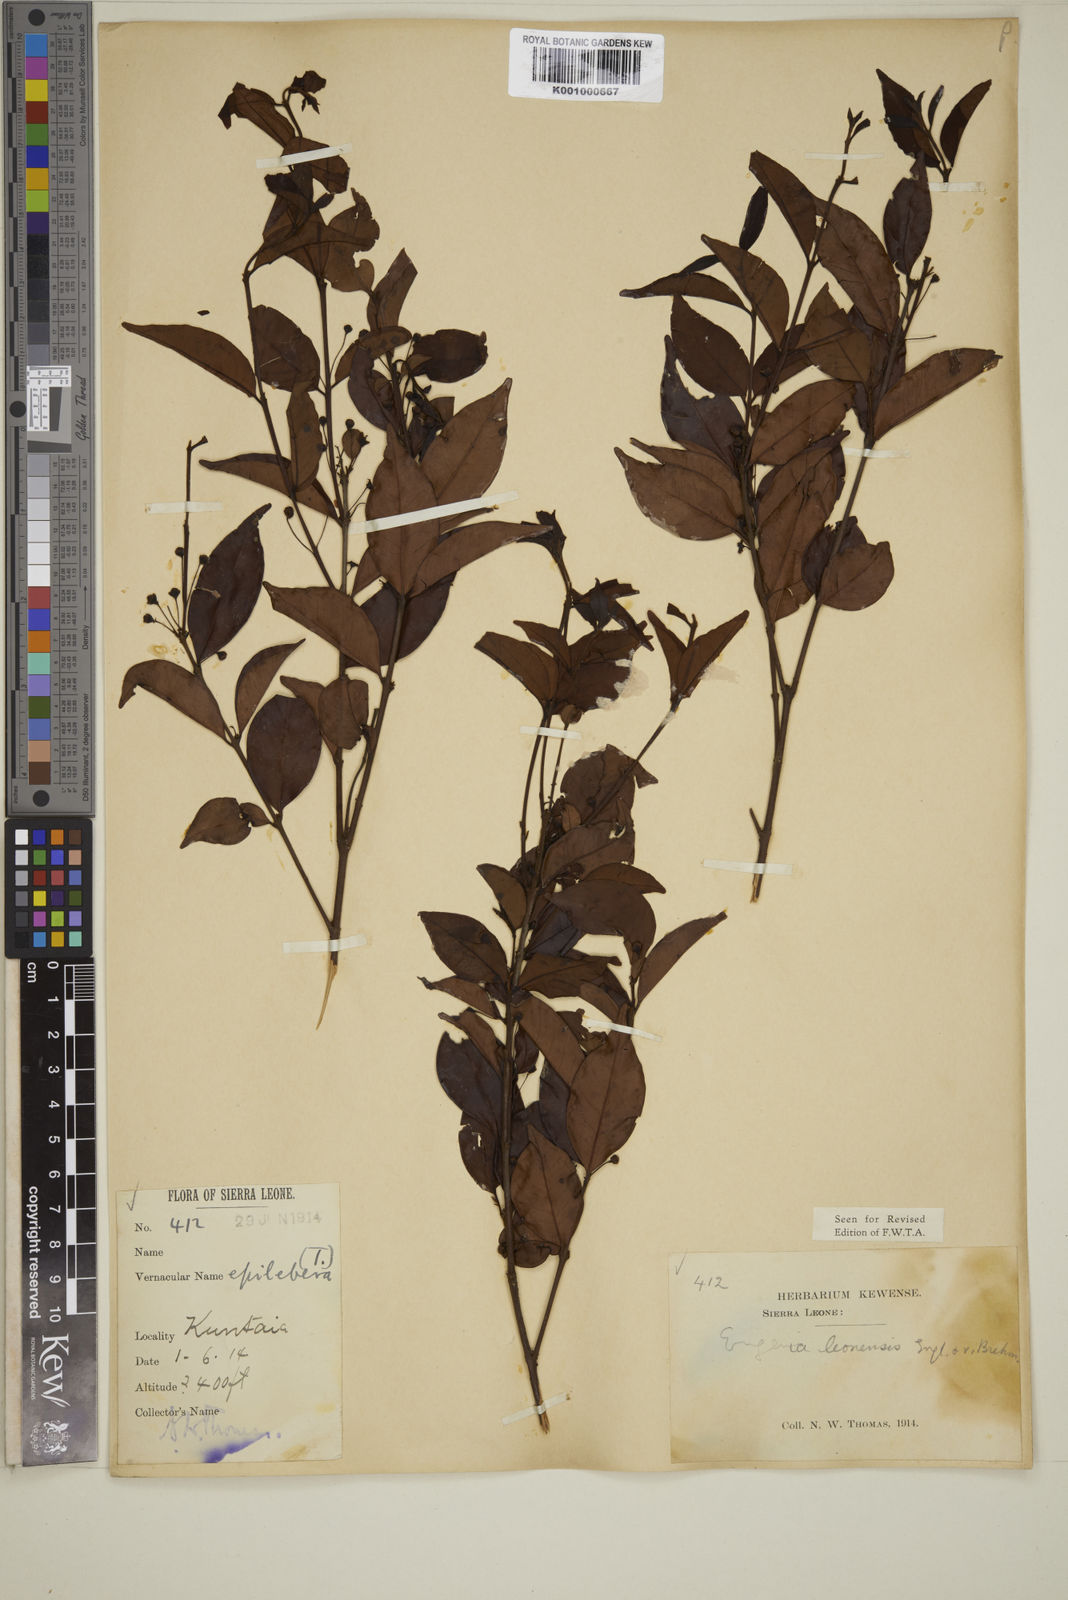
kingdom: Plantae
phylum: Tracheophyta
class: Magnoliopsida
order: Myrtales
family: Myrtaceae
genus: Eugenia
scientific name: Eugenia leonensis
